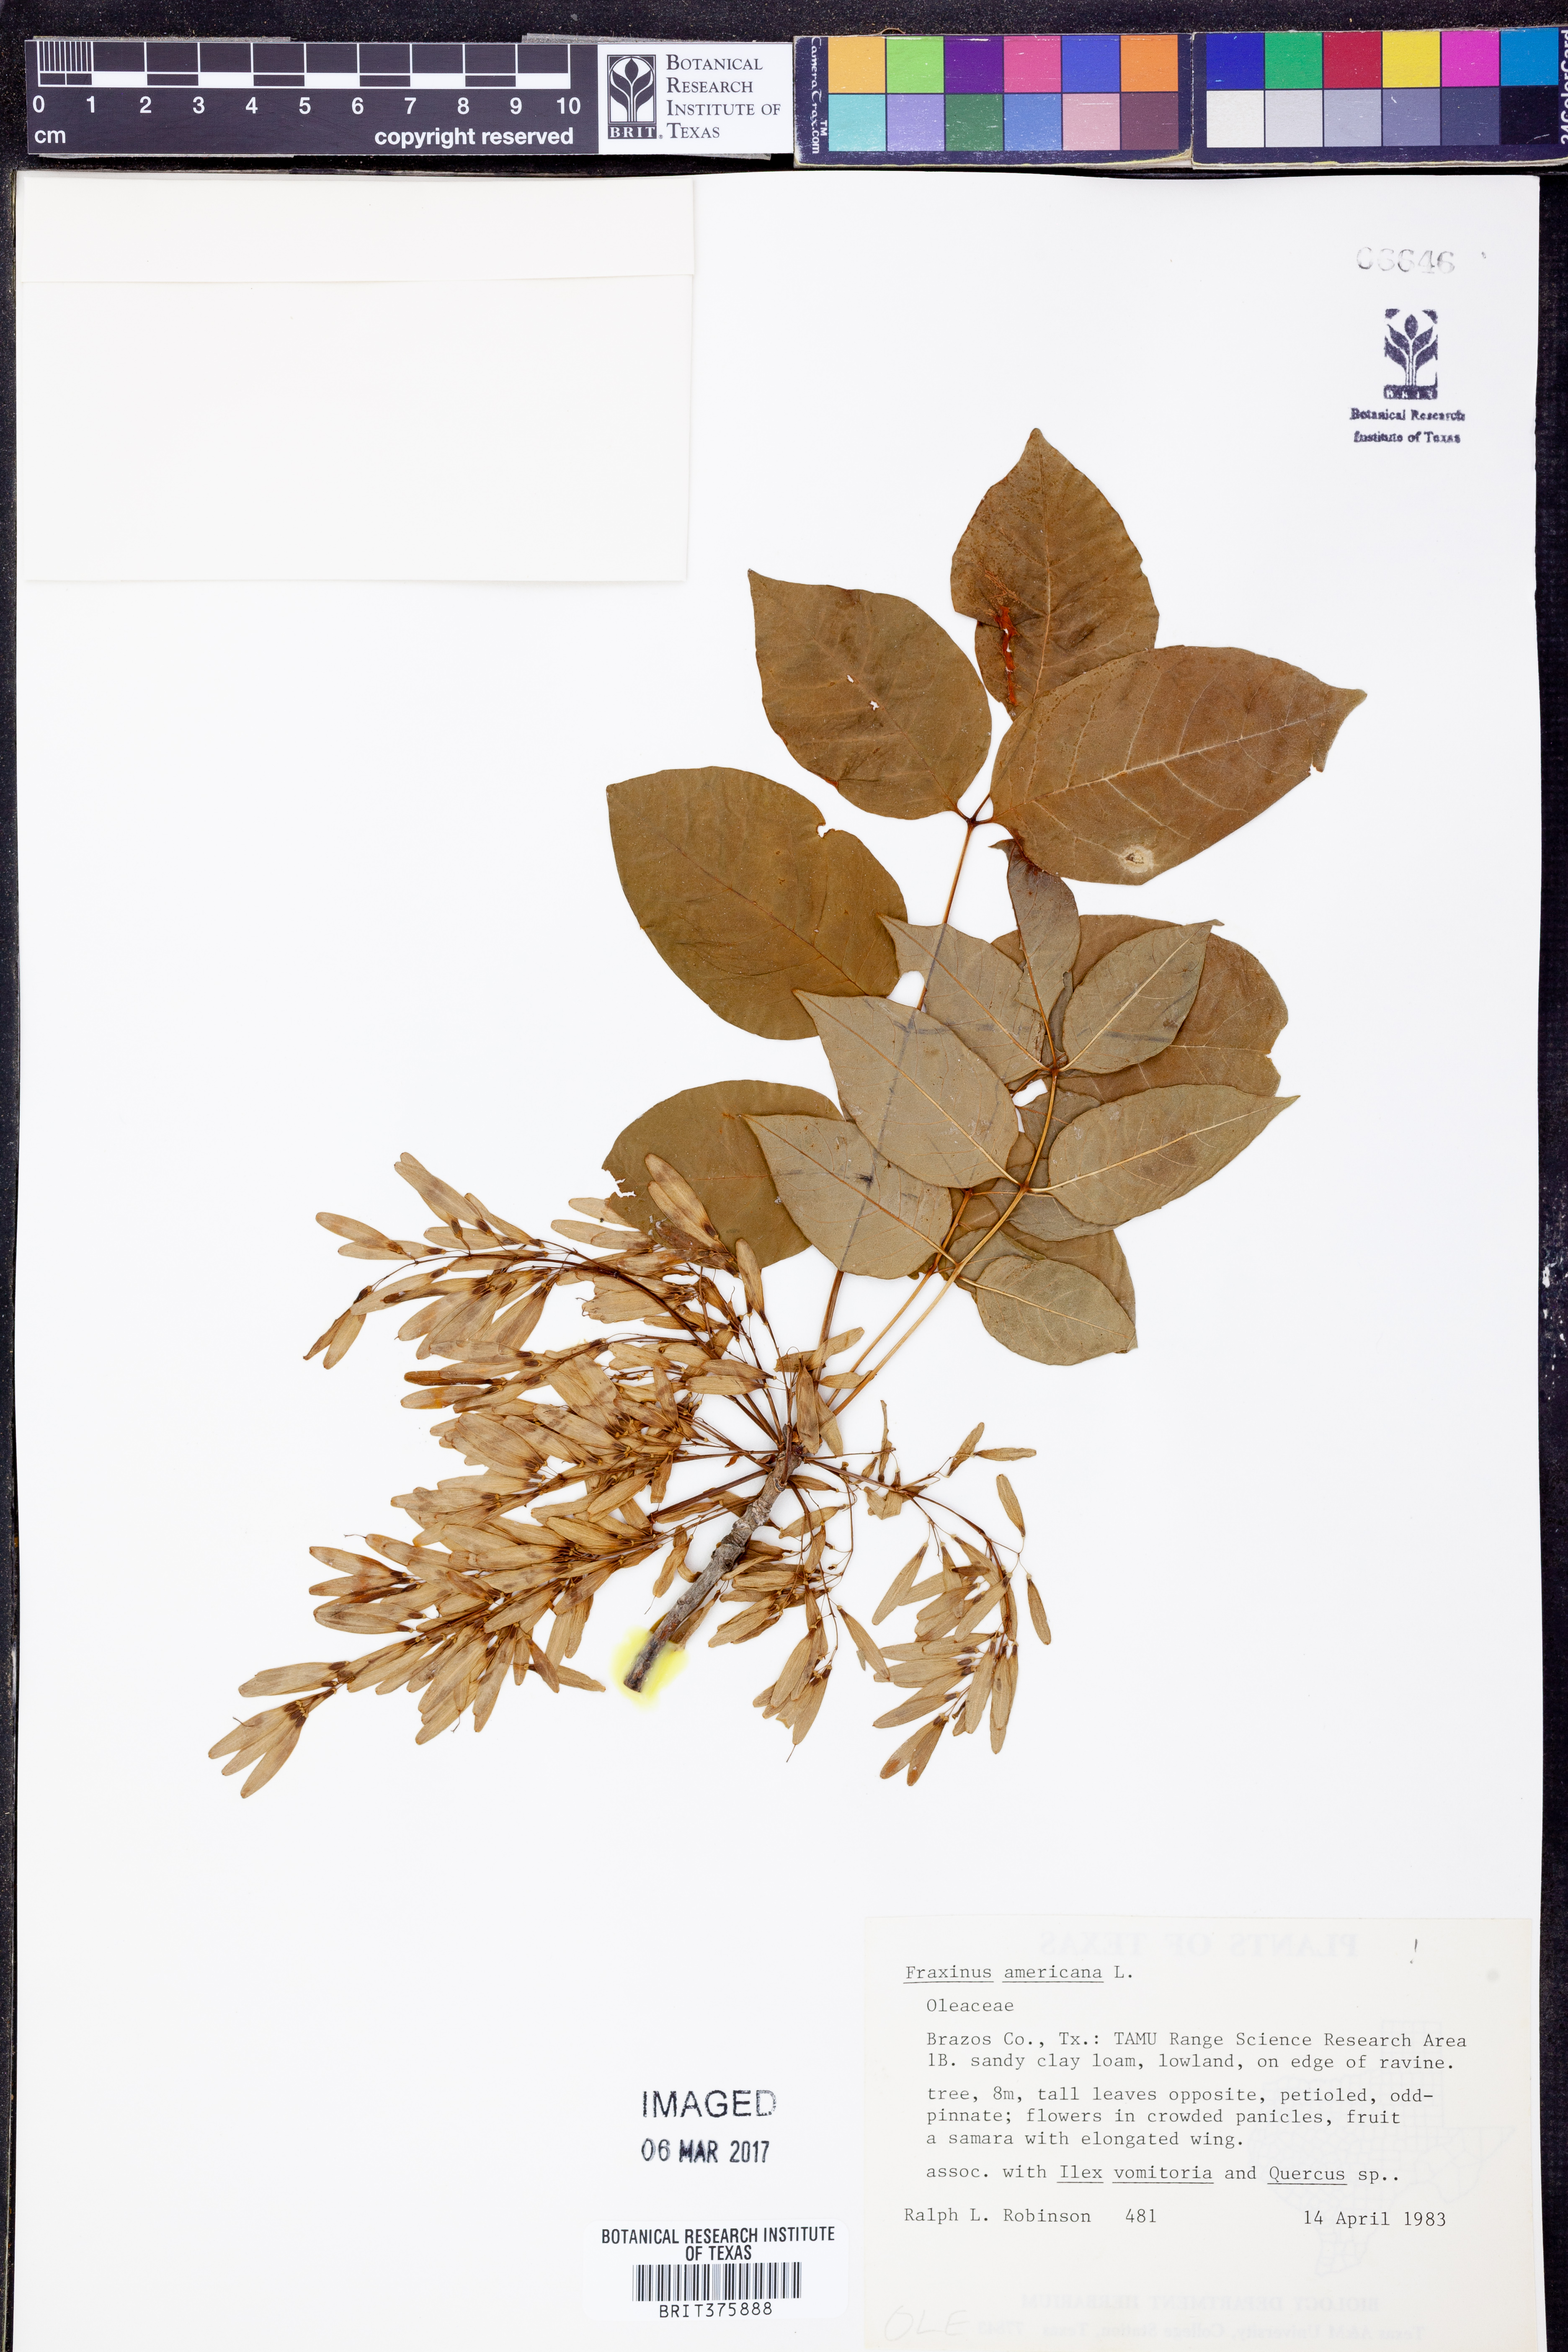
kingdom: Plantae
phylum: Tracheophyta
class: Magnoliopsida
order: Lamiales
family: Oleaceae
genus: Fraxinus
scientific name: Fraxinus americana
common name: White ash
